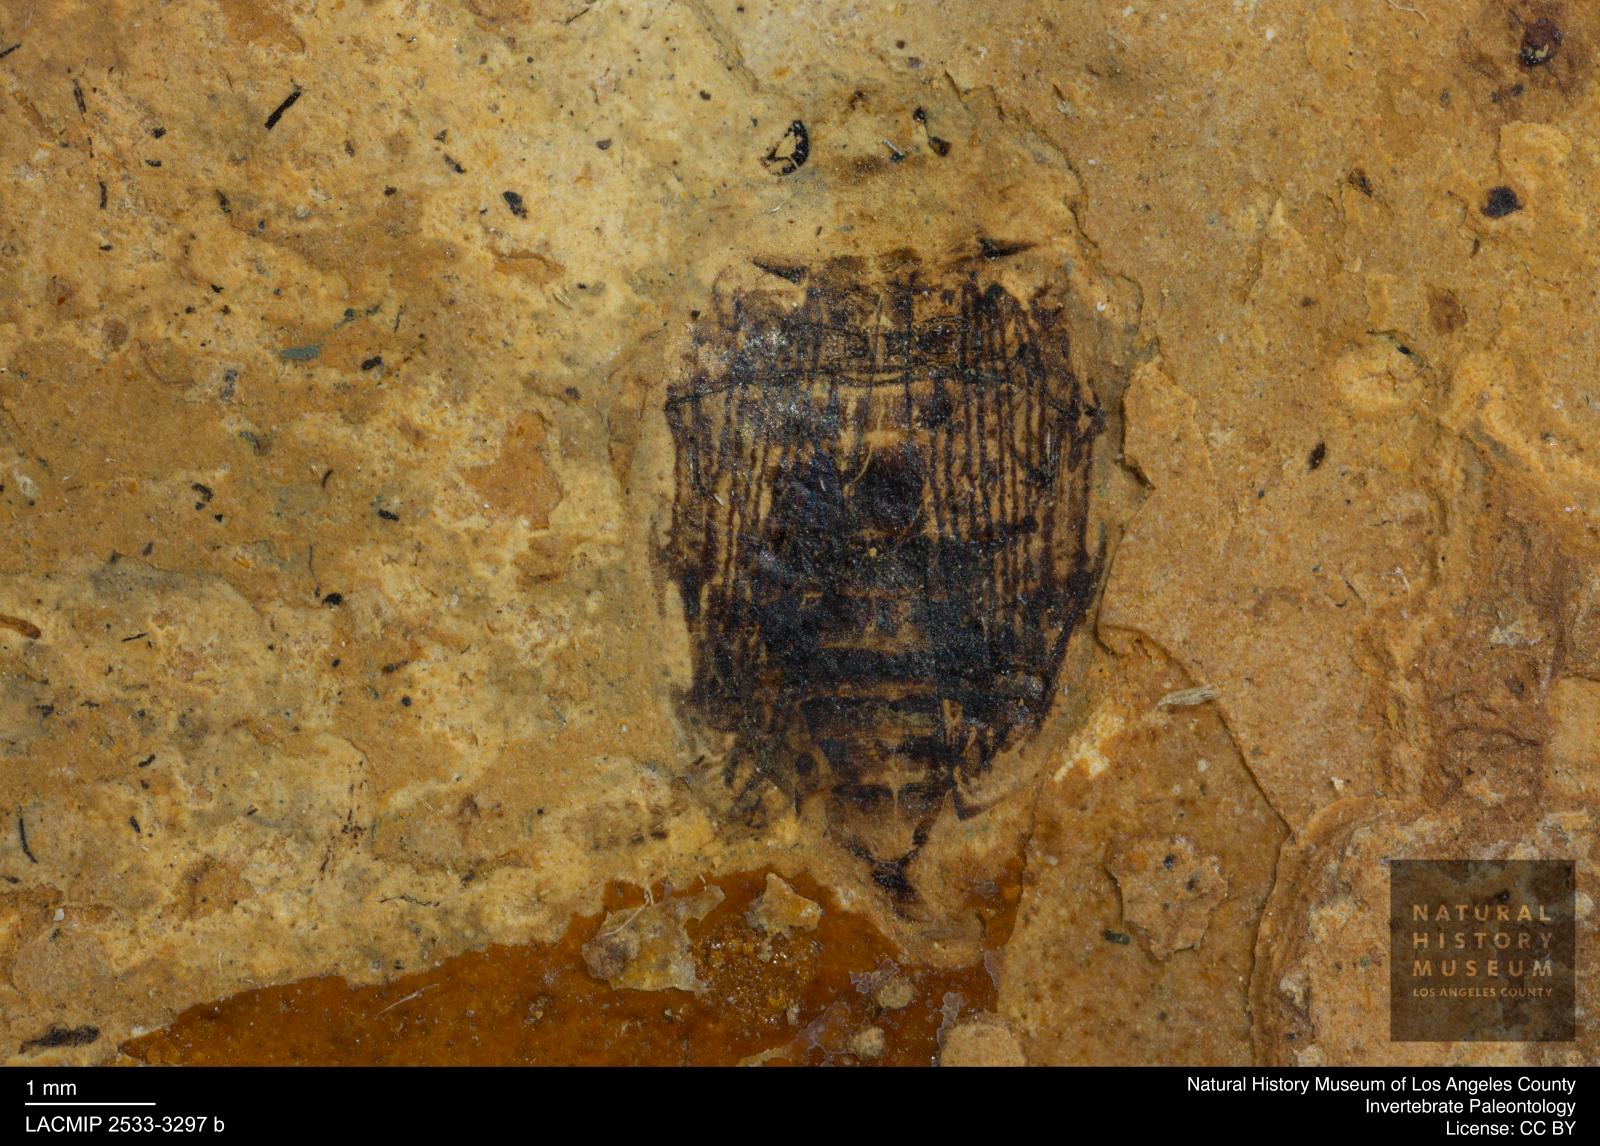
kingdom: Animalia
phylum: Arthropoda
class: Insecta
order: Coleoptera
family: Dytiscidae
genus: Laccophilus
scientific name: Laccophilus Palaeogyrinus strigatus
